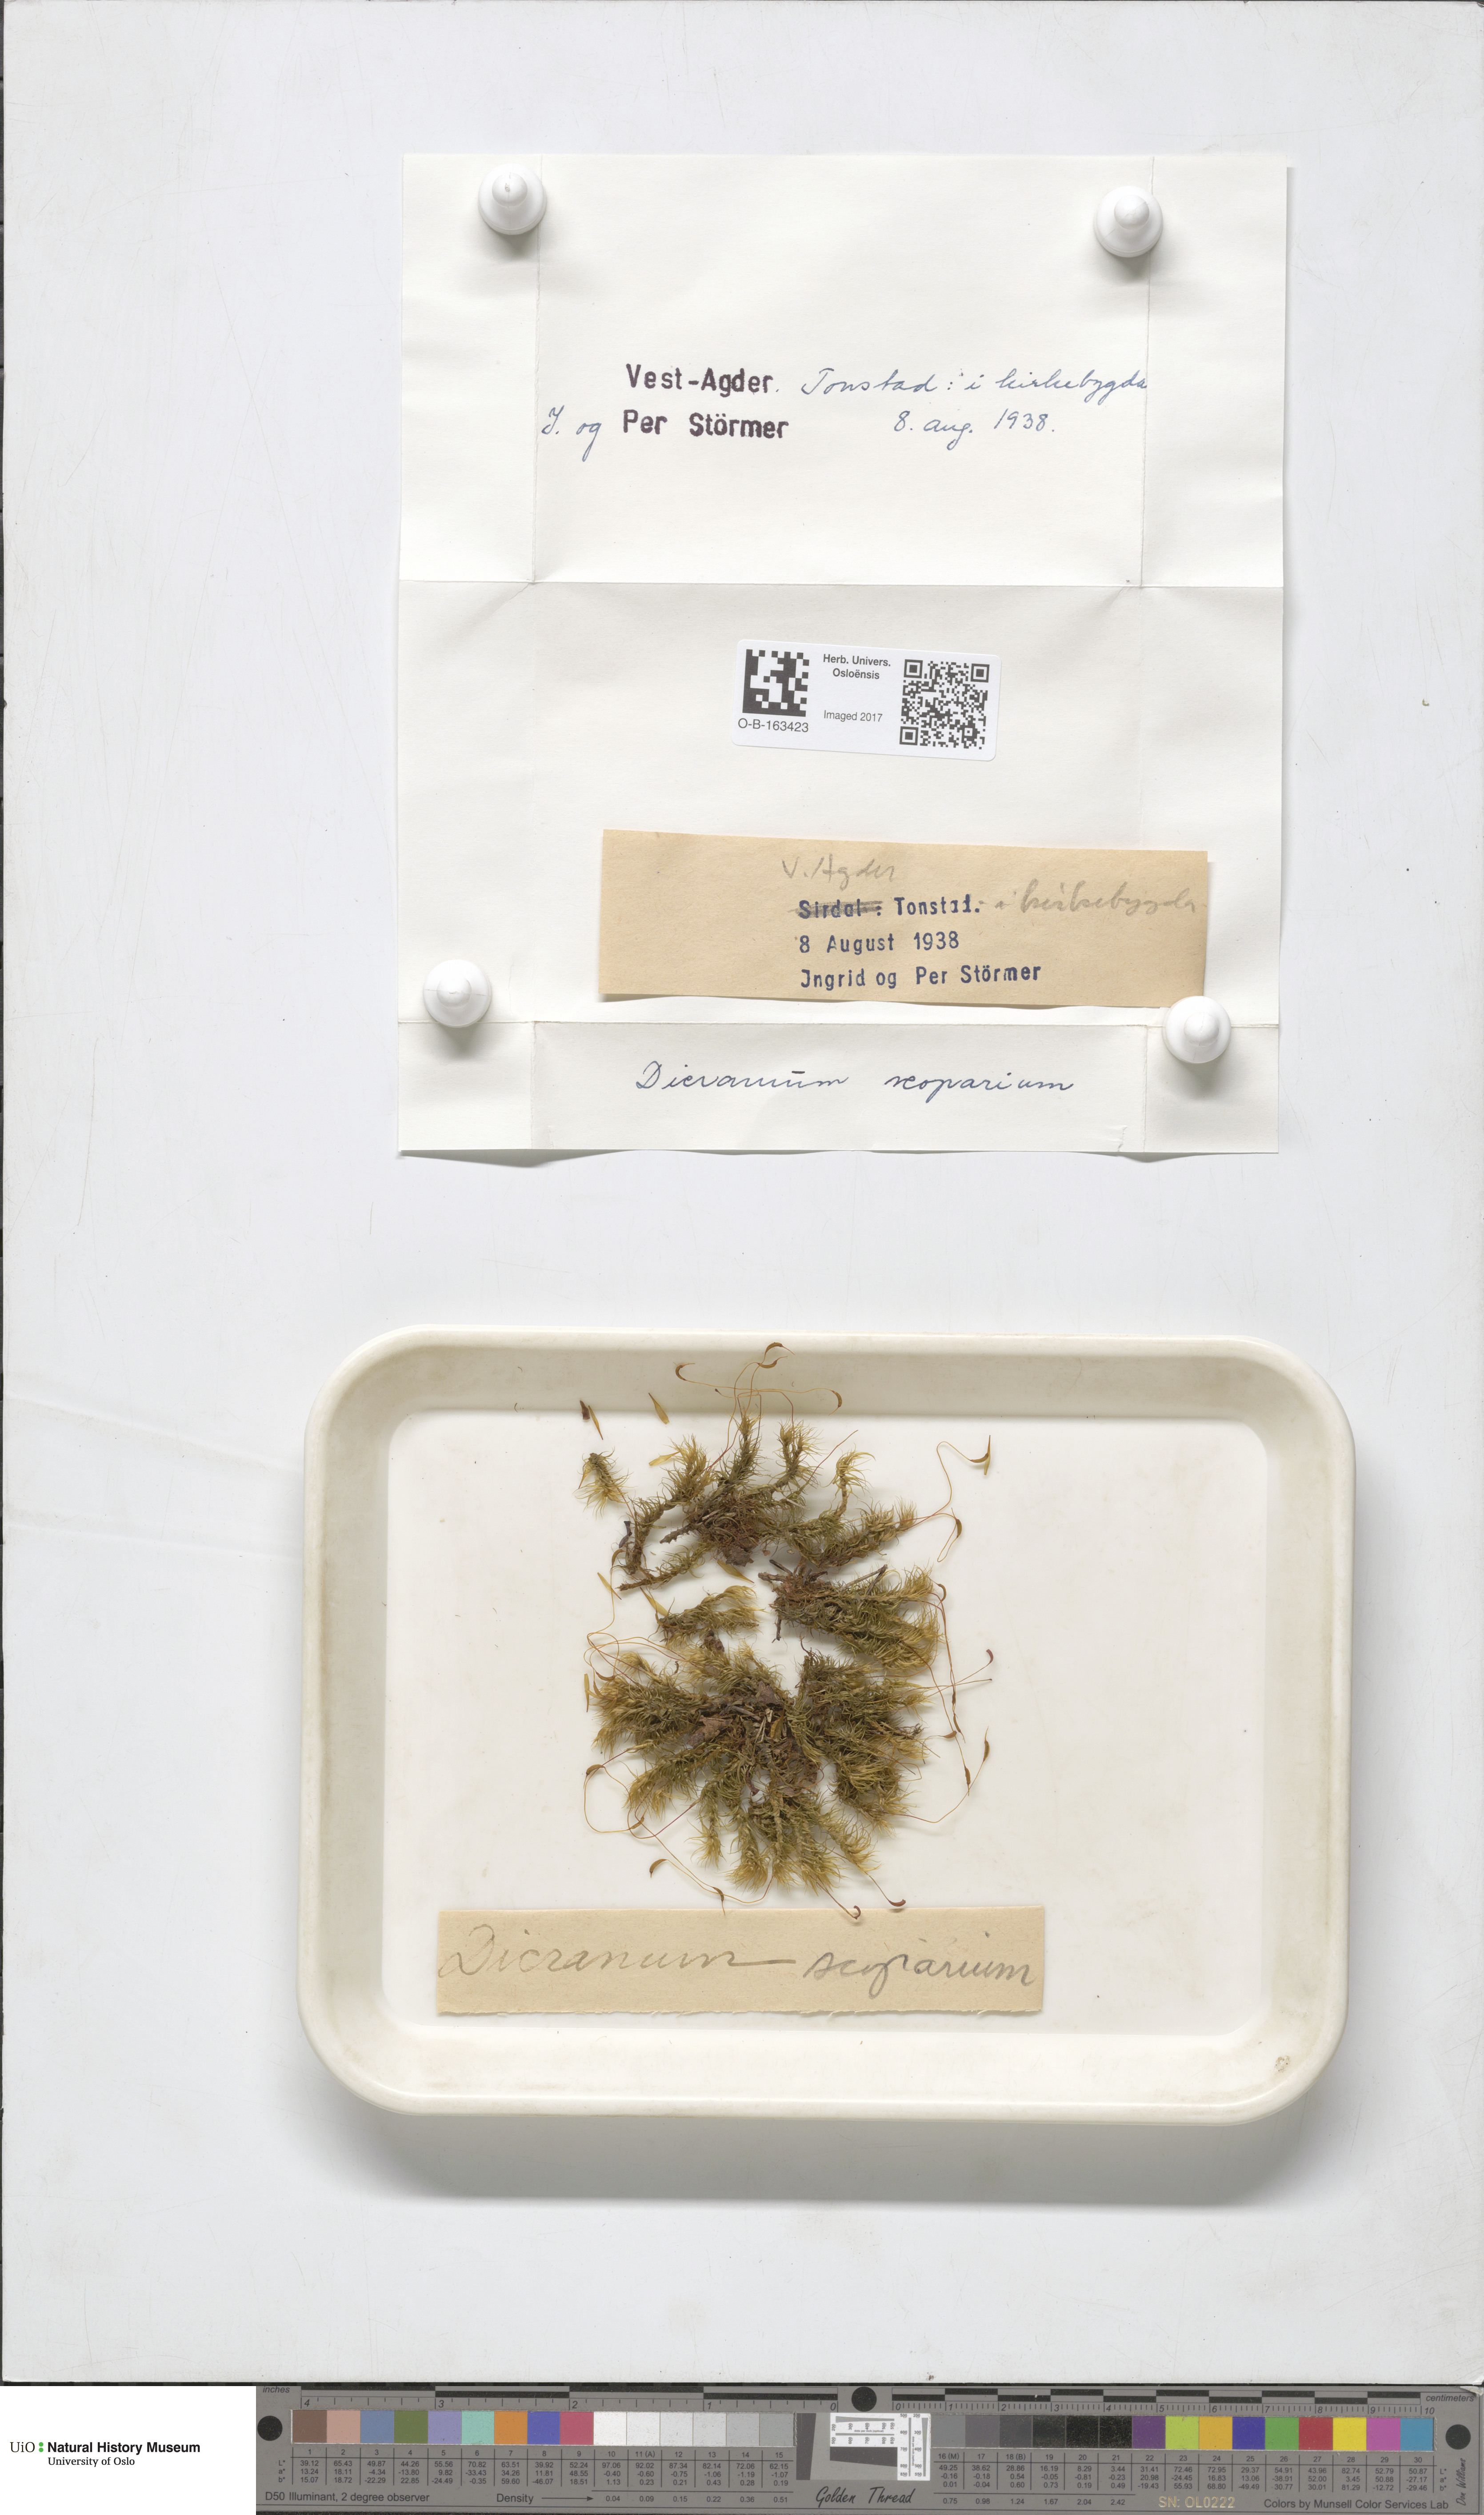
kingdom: Plantae
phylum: Bryophyta
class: Bryopsida
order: Dicranales
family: Dicranaceae
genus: Dicranum
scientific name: Dicranum scoparium
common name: Broom fork-moss
